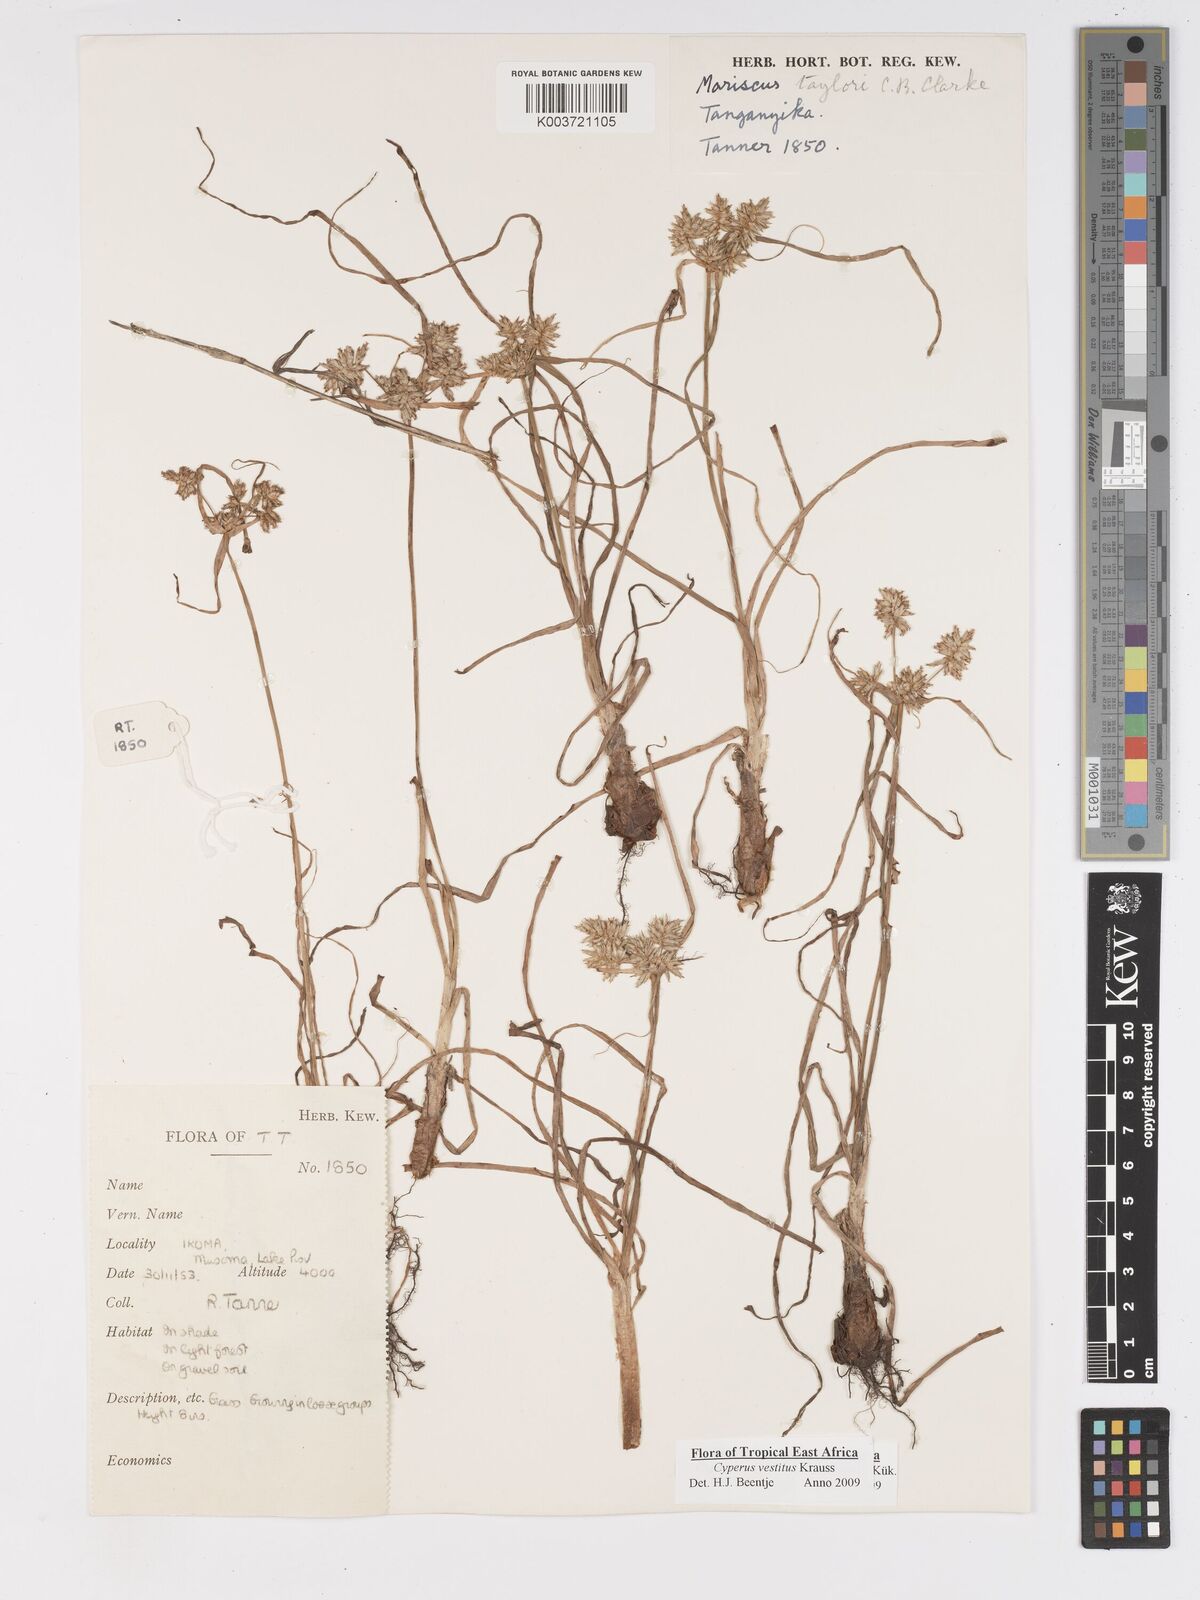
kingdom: Plantae
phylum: Tracheophyta
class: Liliopsida
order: Poales
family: Cyperaceae
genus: Cyperus
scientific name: Cyperus vestitus
